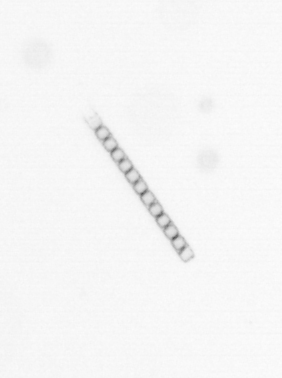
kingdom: Chromista
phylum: Ochrophyta
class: Bacillariophyceae
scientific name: Bacillariophyceae
